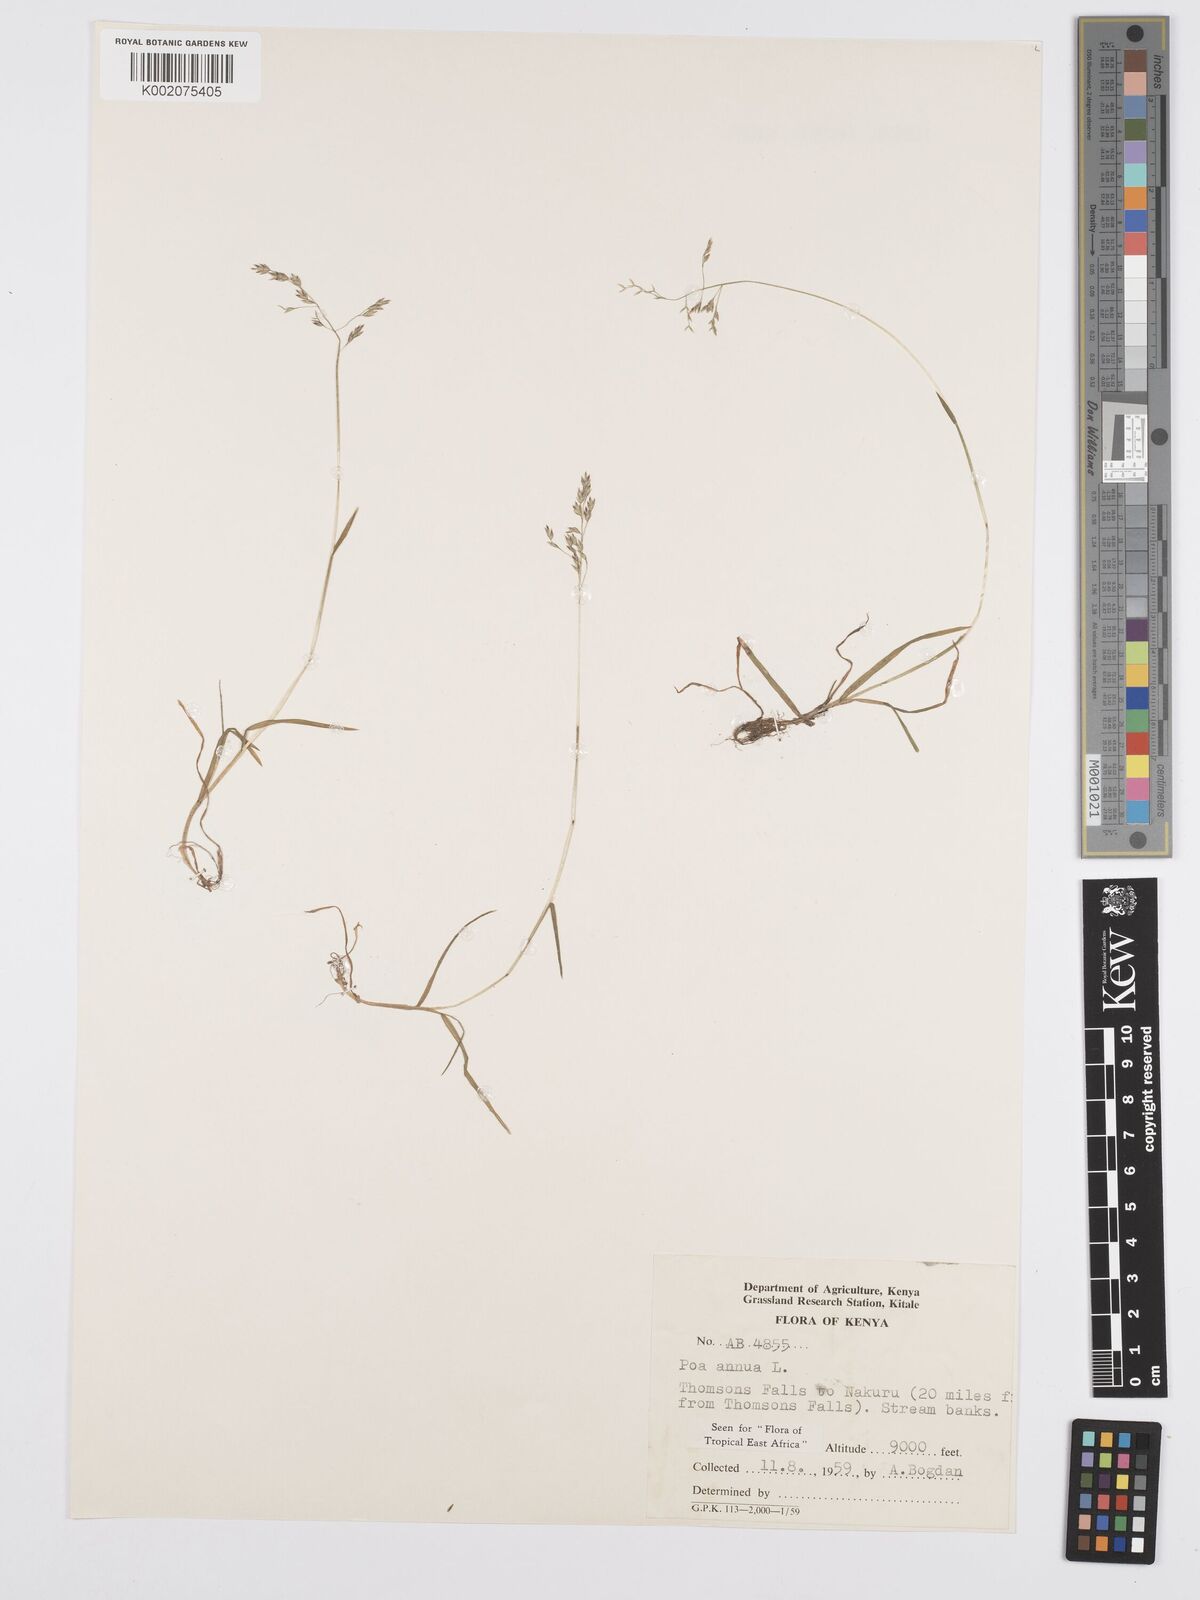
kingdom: Plantae
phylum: Tracheophyta
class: Liliopsida
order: Poales
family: Poaceae
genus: Poa
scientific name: Poa annua
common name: Annual bluegrass
